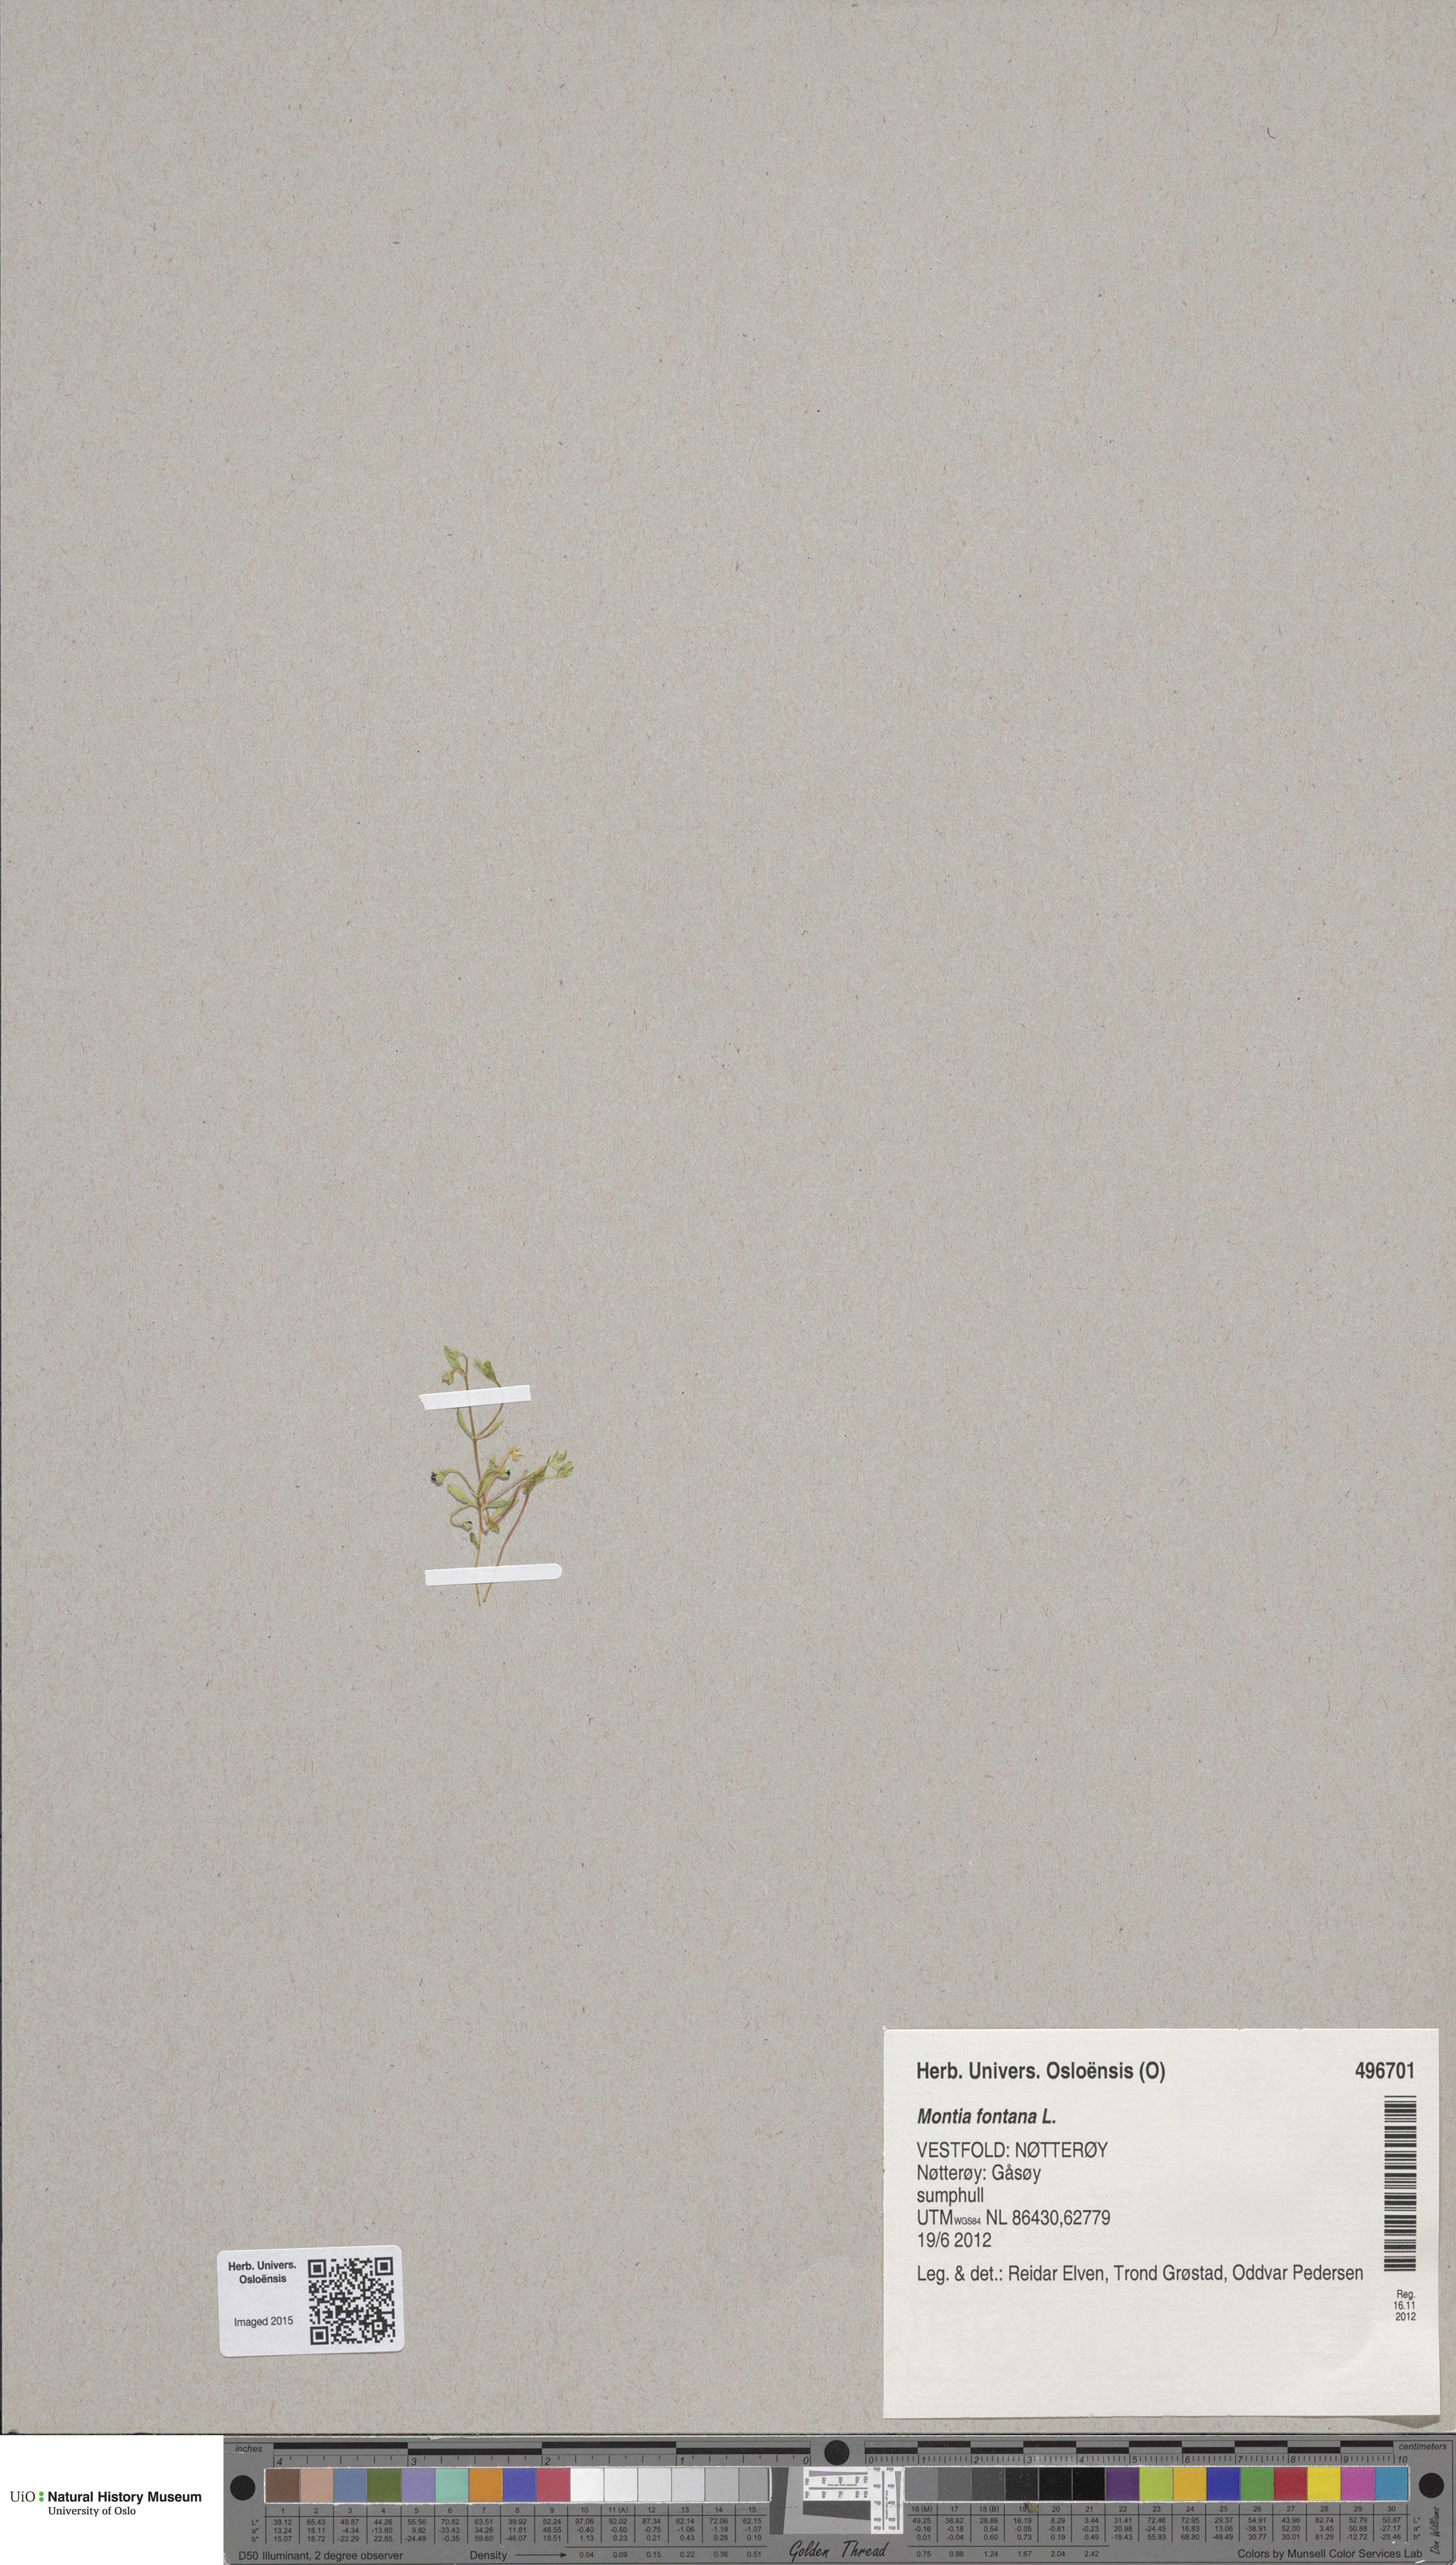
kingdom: Plantae
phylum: Tracheophyta
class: Magnoliopsida
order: Caryophyllales
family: Montiaceae
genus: Montia
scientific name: Montia fontana
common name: Blinks
